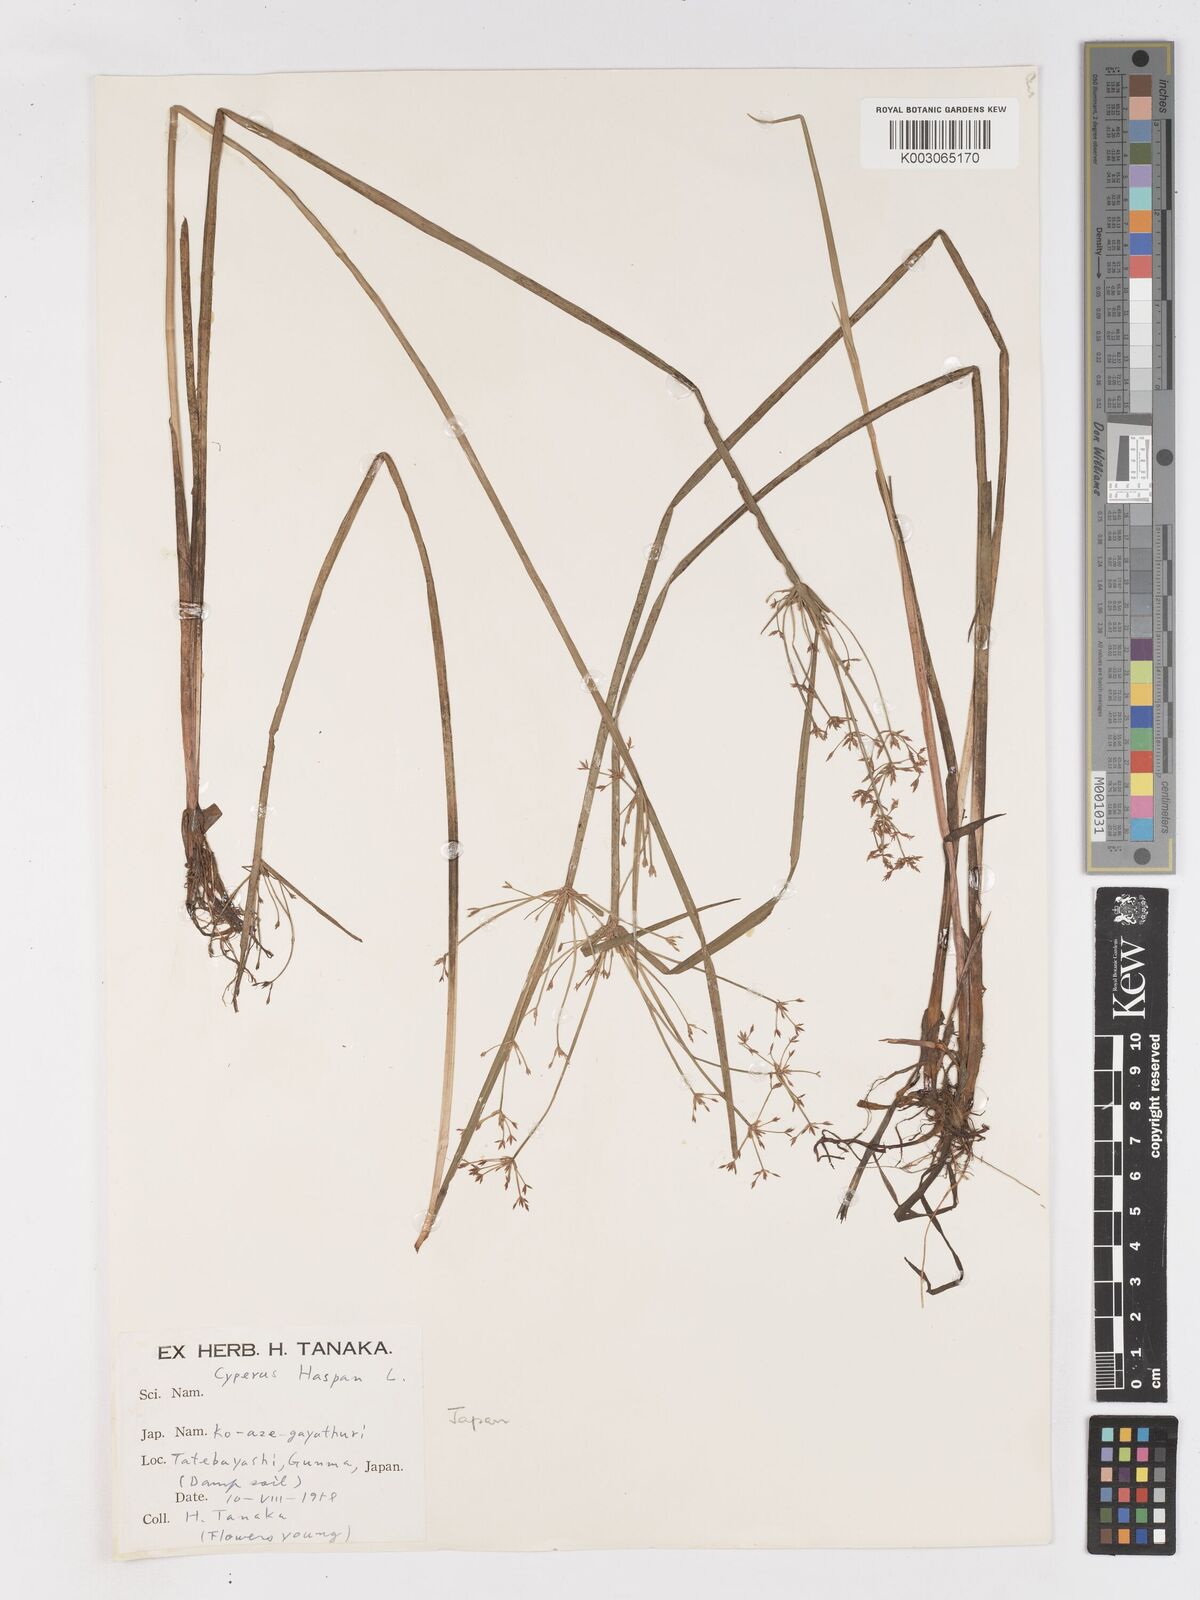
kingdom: Plantae
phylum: Tracheophyta
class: Liliopsida
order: Poales
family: Cyperaceae
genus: Cyperus
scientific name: Cyperus haspan
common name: Haspan flatsedge
